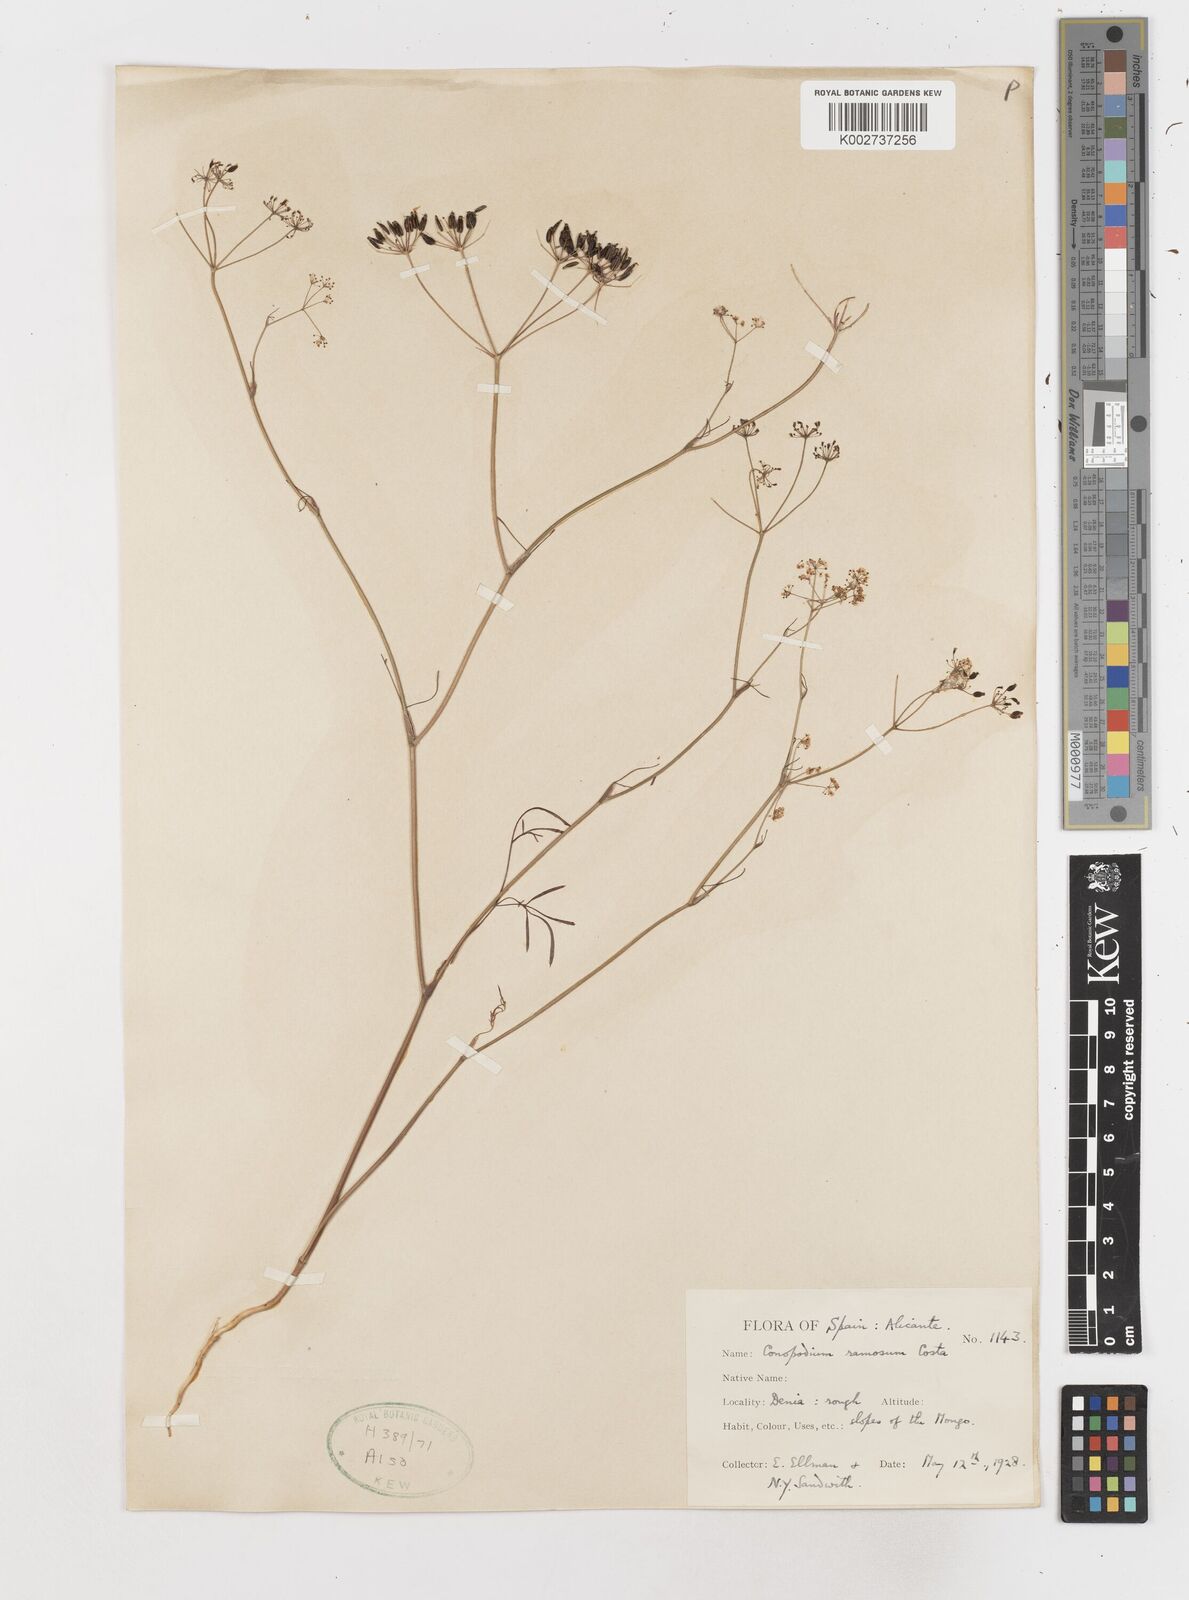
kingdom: Plantae
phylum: Tracheophyta
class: Magnoliopsida
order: Apiales
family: Apiaceae
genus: Conopodium
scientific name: Conopodium arvense
